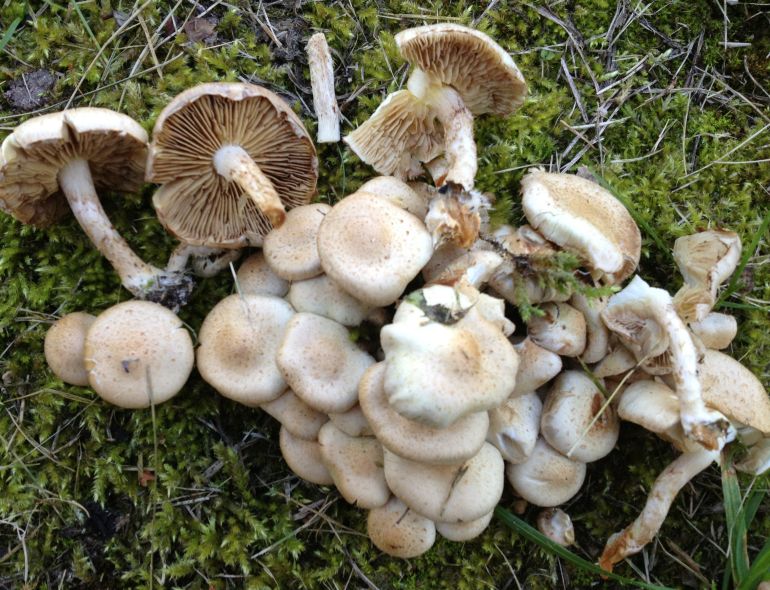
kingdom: Fungi
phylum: Basidiomycota
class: Agaricomycetes
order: Agaricales
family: Strophariaceae
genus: Pholiota
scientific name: Pholiota gummosa
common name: grøngul skælhat
